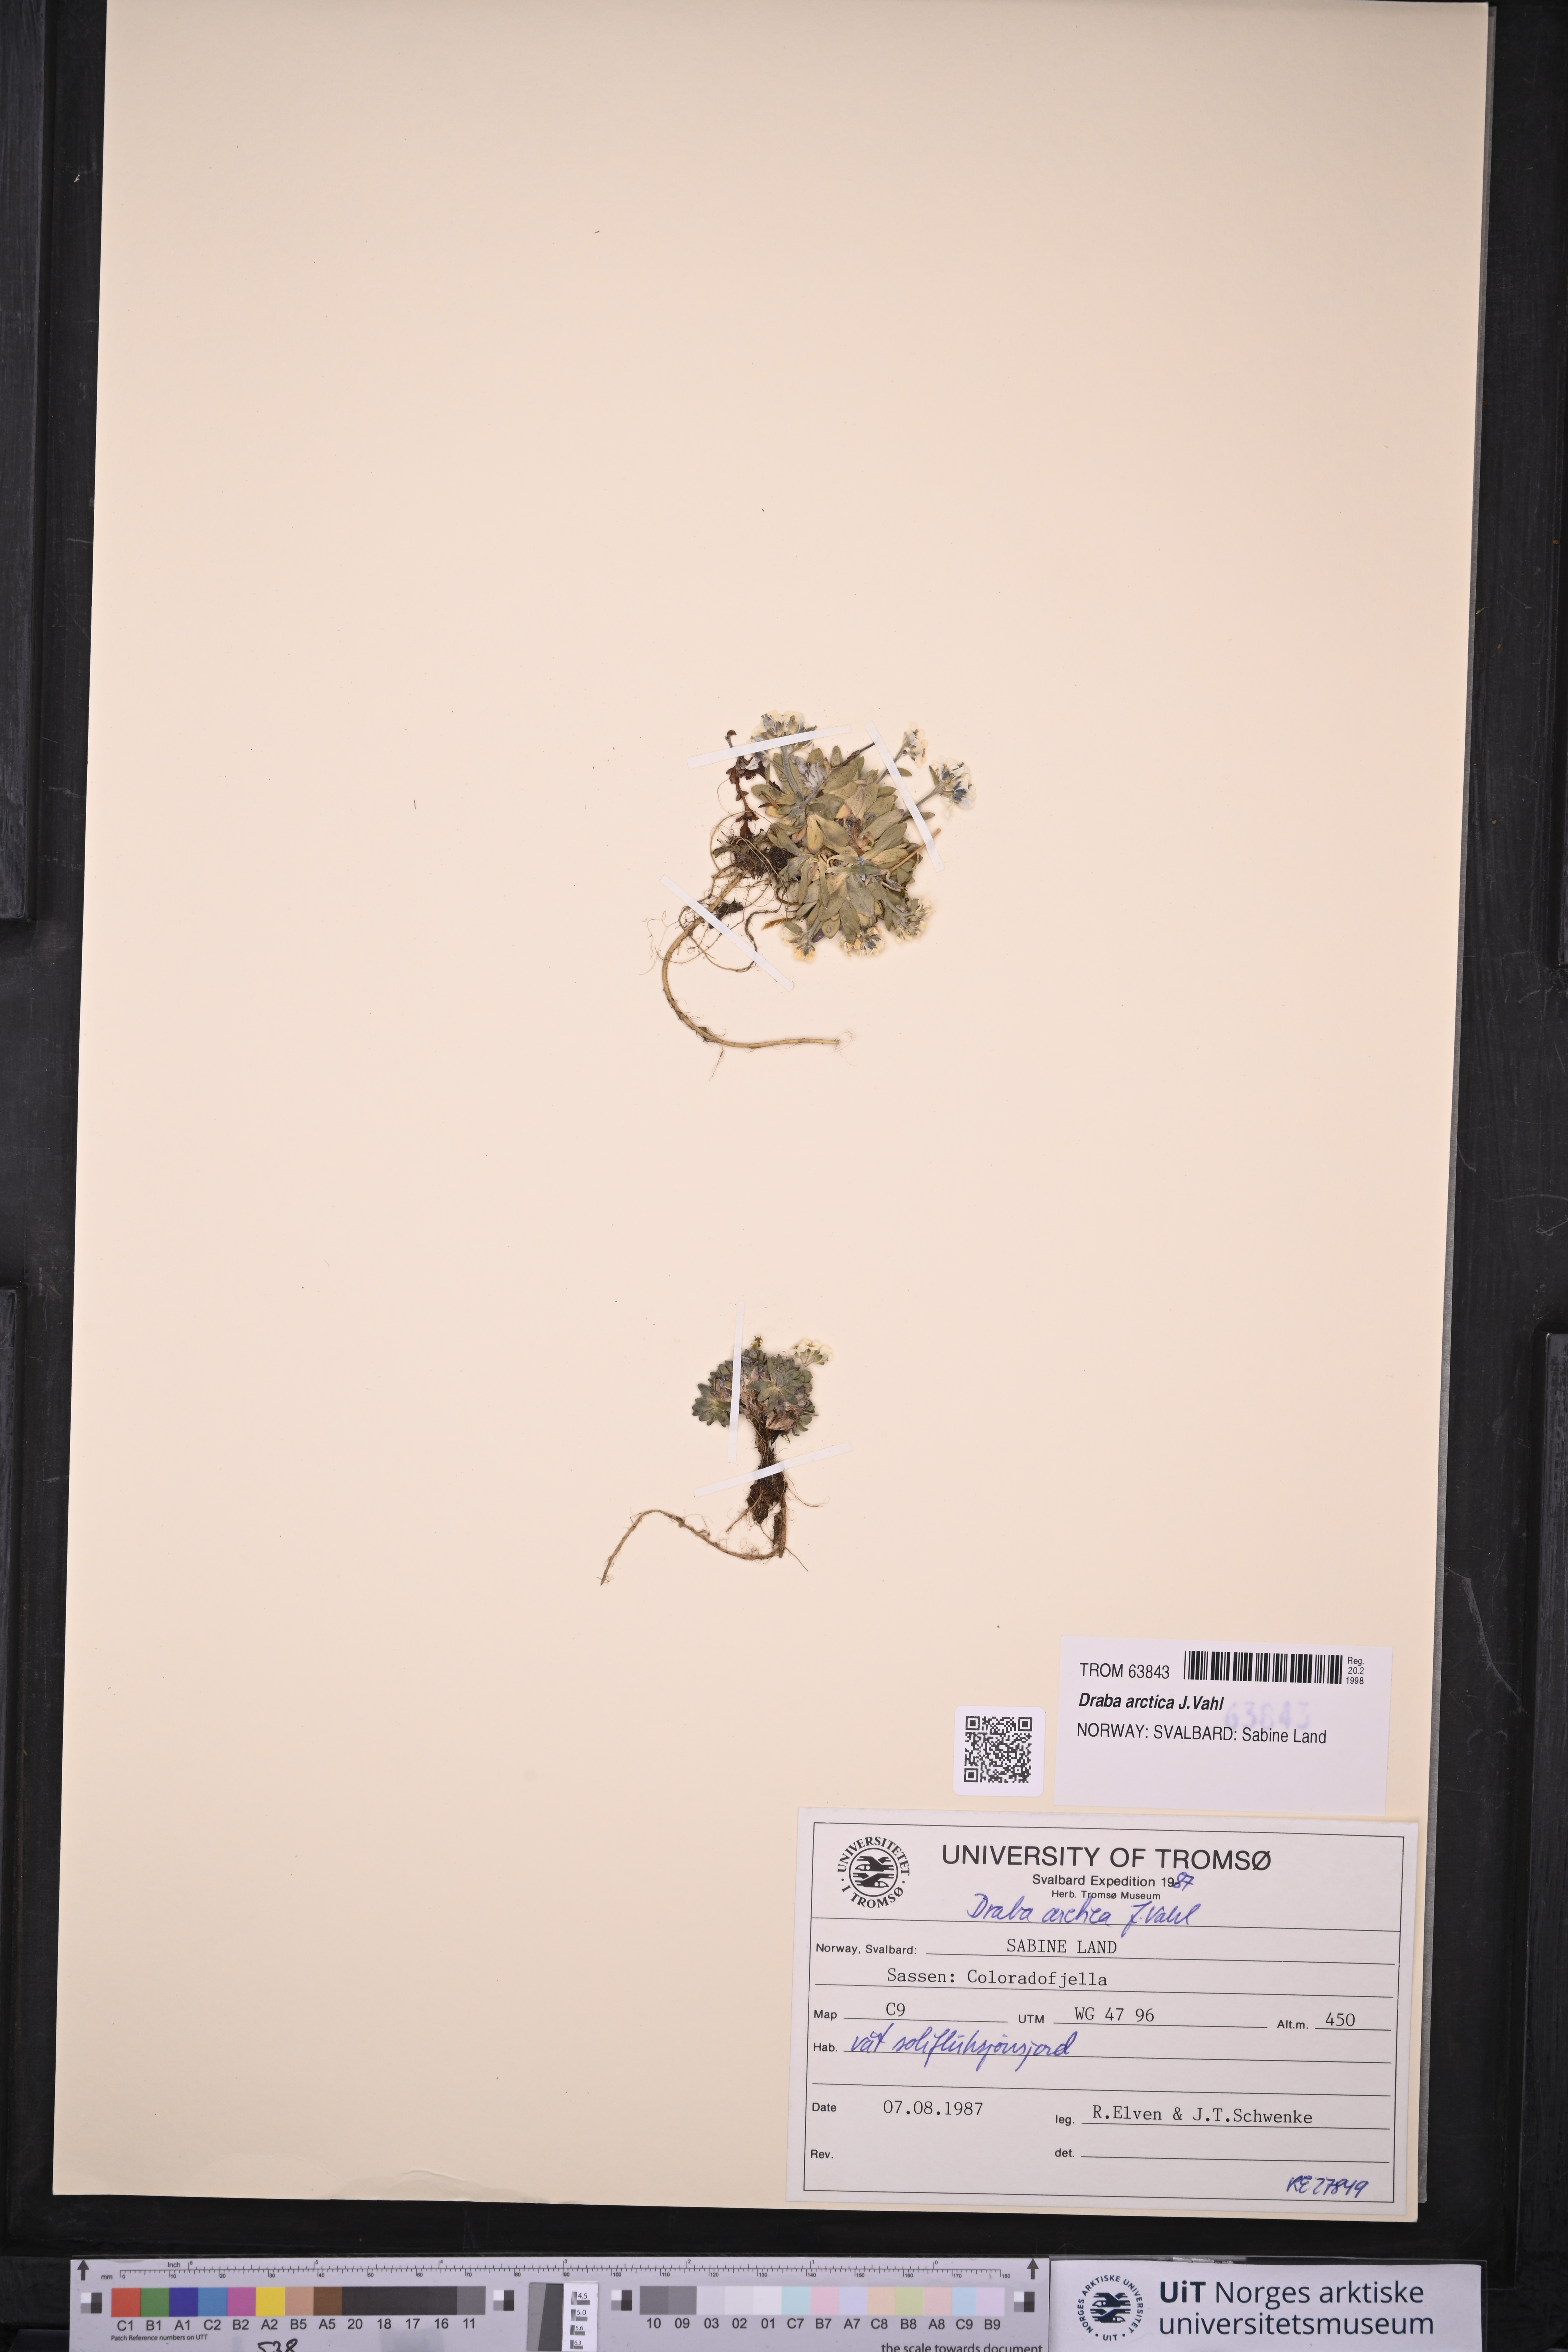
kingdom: Plantae
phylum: Tracheophyta
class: Magnoliopsida
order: Brassicales
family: Brassicaceae
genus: Draba
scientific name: Draba arctica
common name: Arctic draba
